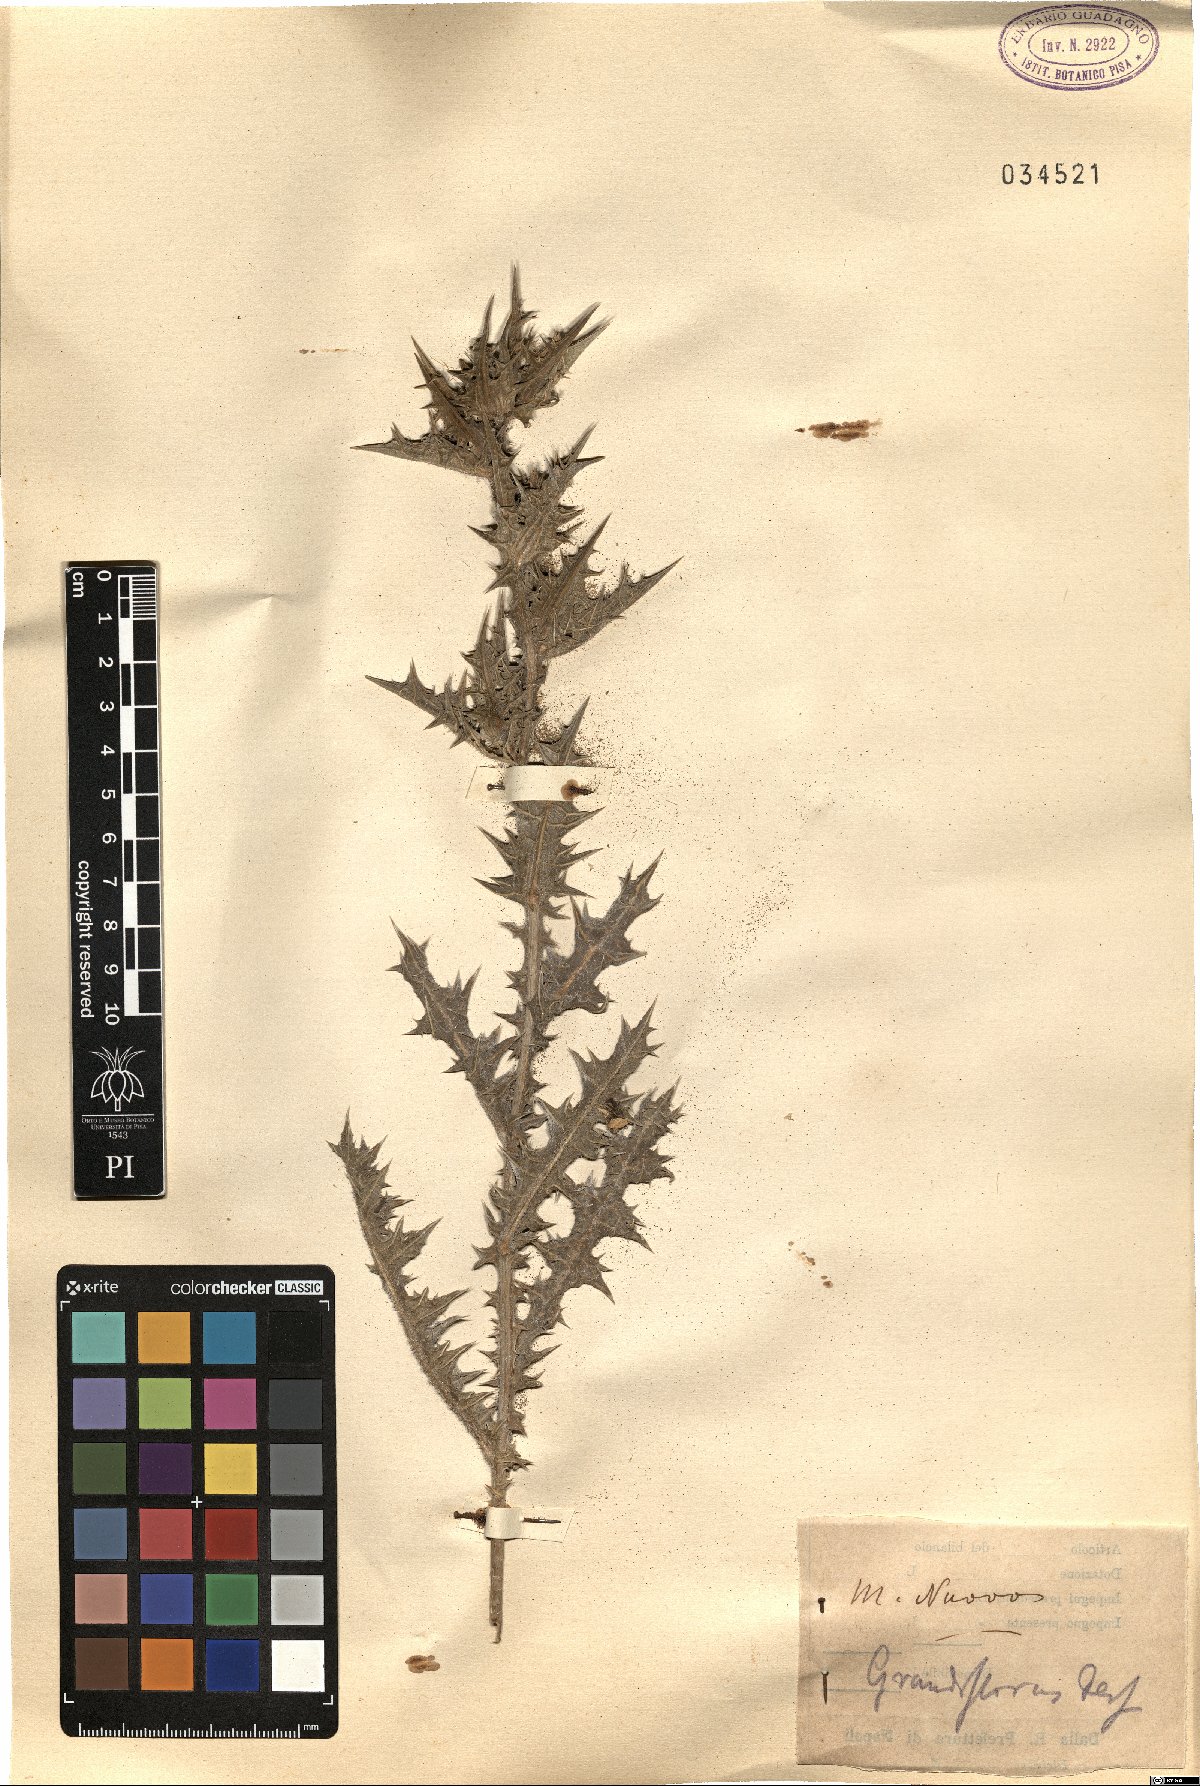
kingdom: Plantae
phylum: Tracheophyta
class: Magnoliopsida
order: Asterales
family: Asteraceae
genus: Scolymus
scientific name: Scolymus grandiflorus
